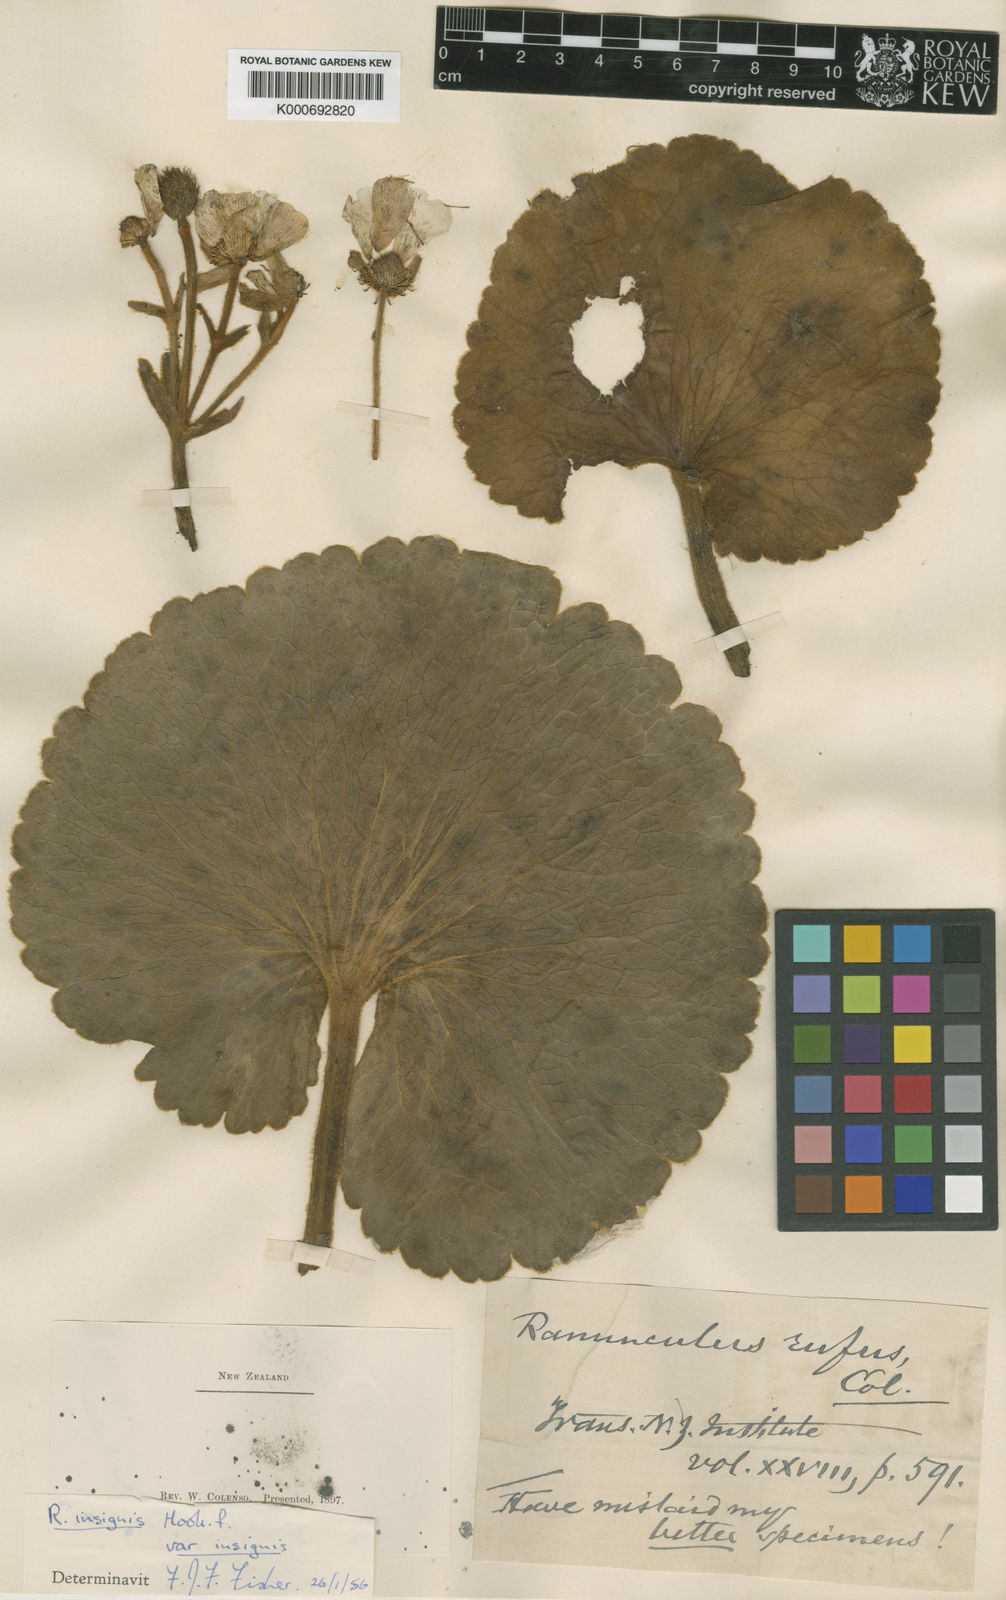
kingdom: Plantae
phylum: Tracheophyta
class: Magnoliopsida
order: Ranunculales
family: Ranunculaceae
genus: Ranunculus
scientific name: Ranunculus insignis
